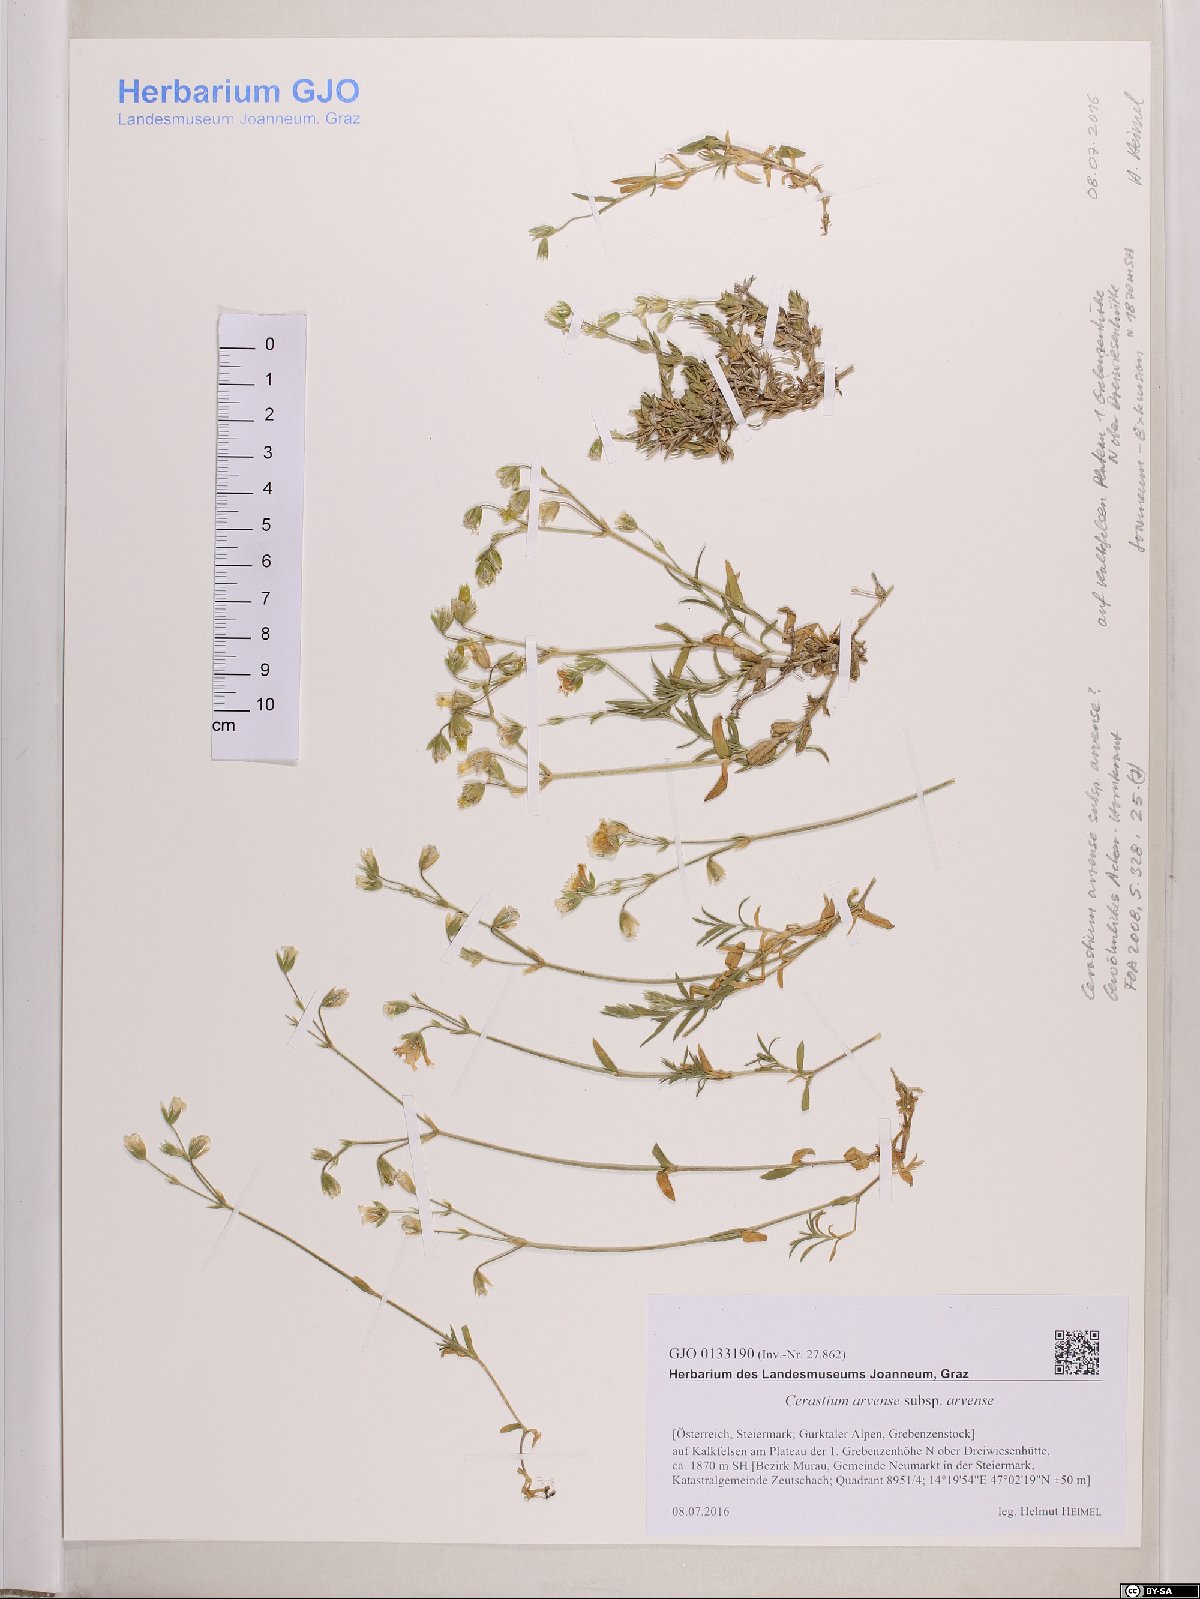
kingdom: Plantae
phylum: Tracheophyta
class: Magnoliopsida
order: Caryophyllales
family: Caryophyllaceae
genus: Cerastium
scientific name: Cerastium arvense
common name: Field mouse-ear
